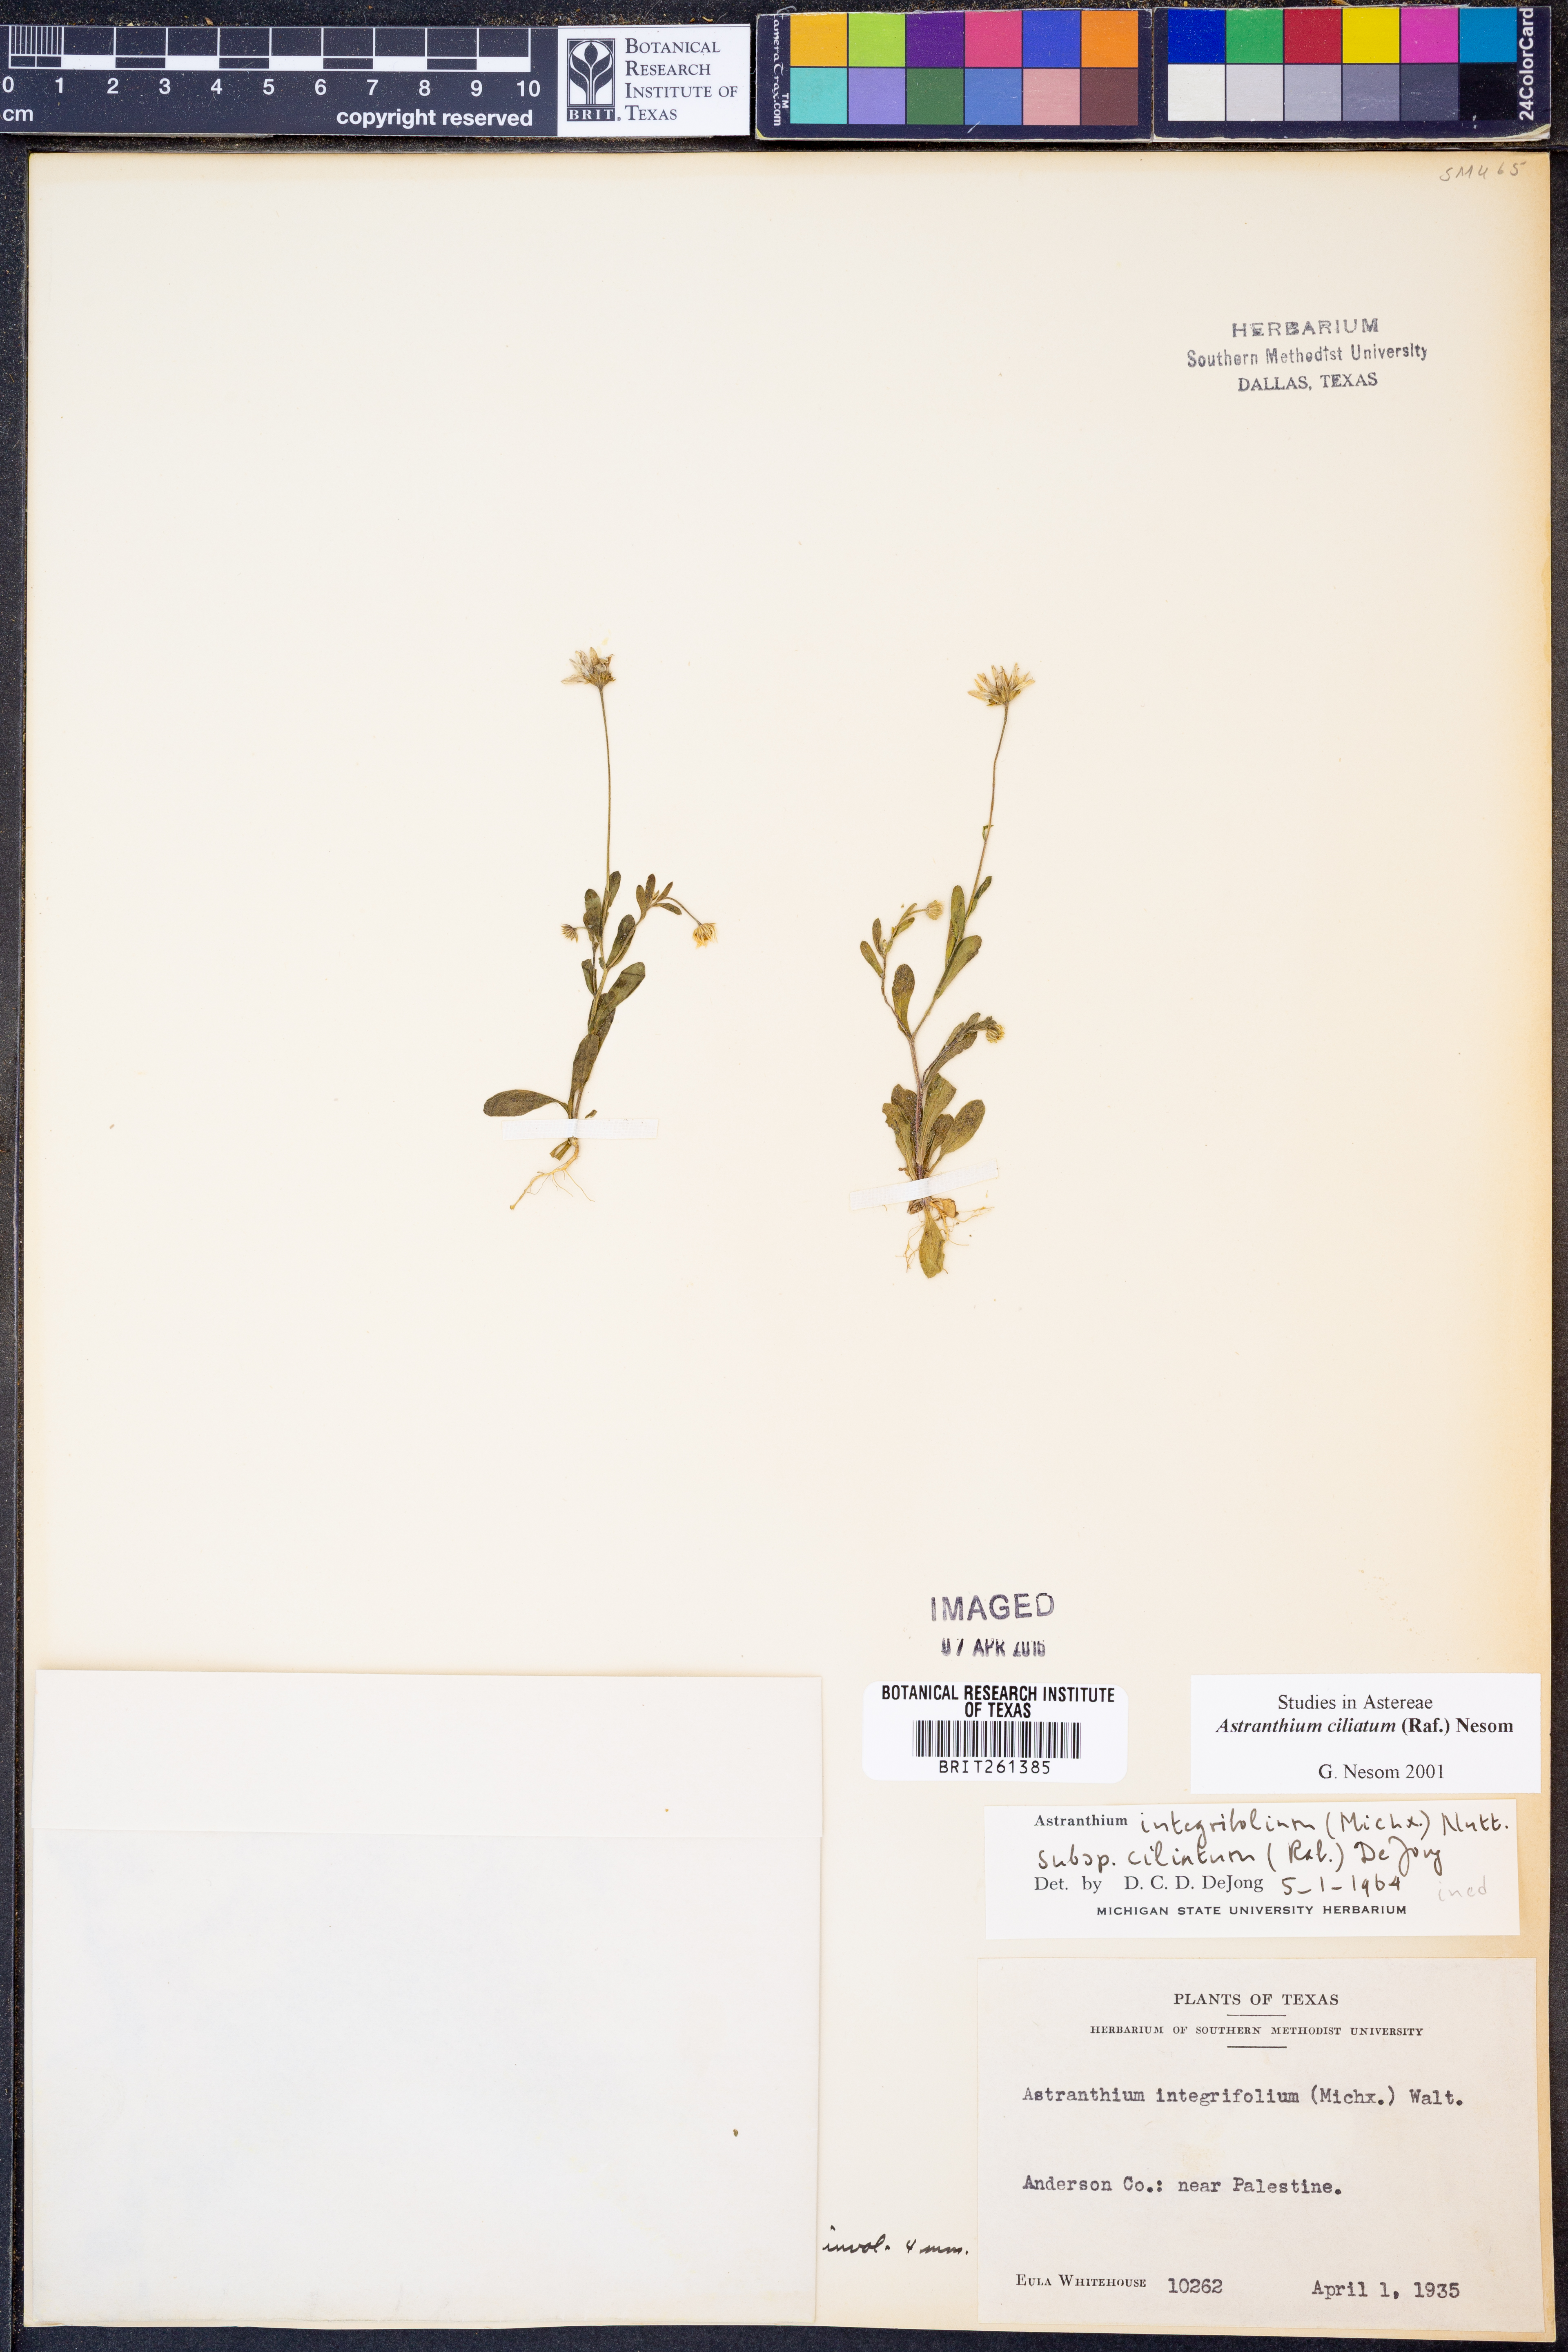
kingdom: Plantae
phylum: Tracheophyta
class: Magnoliopsida
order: Asterales
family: Asteraceae
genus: Astranthium
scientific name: Astranthium ciliatum
